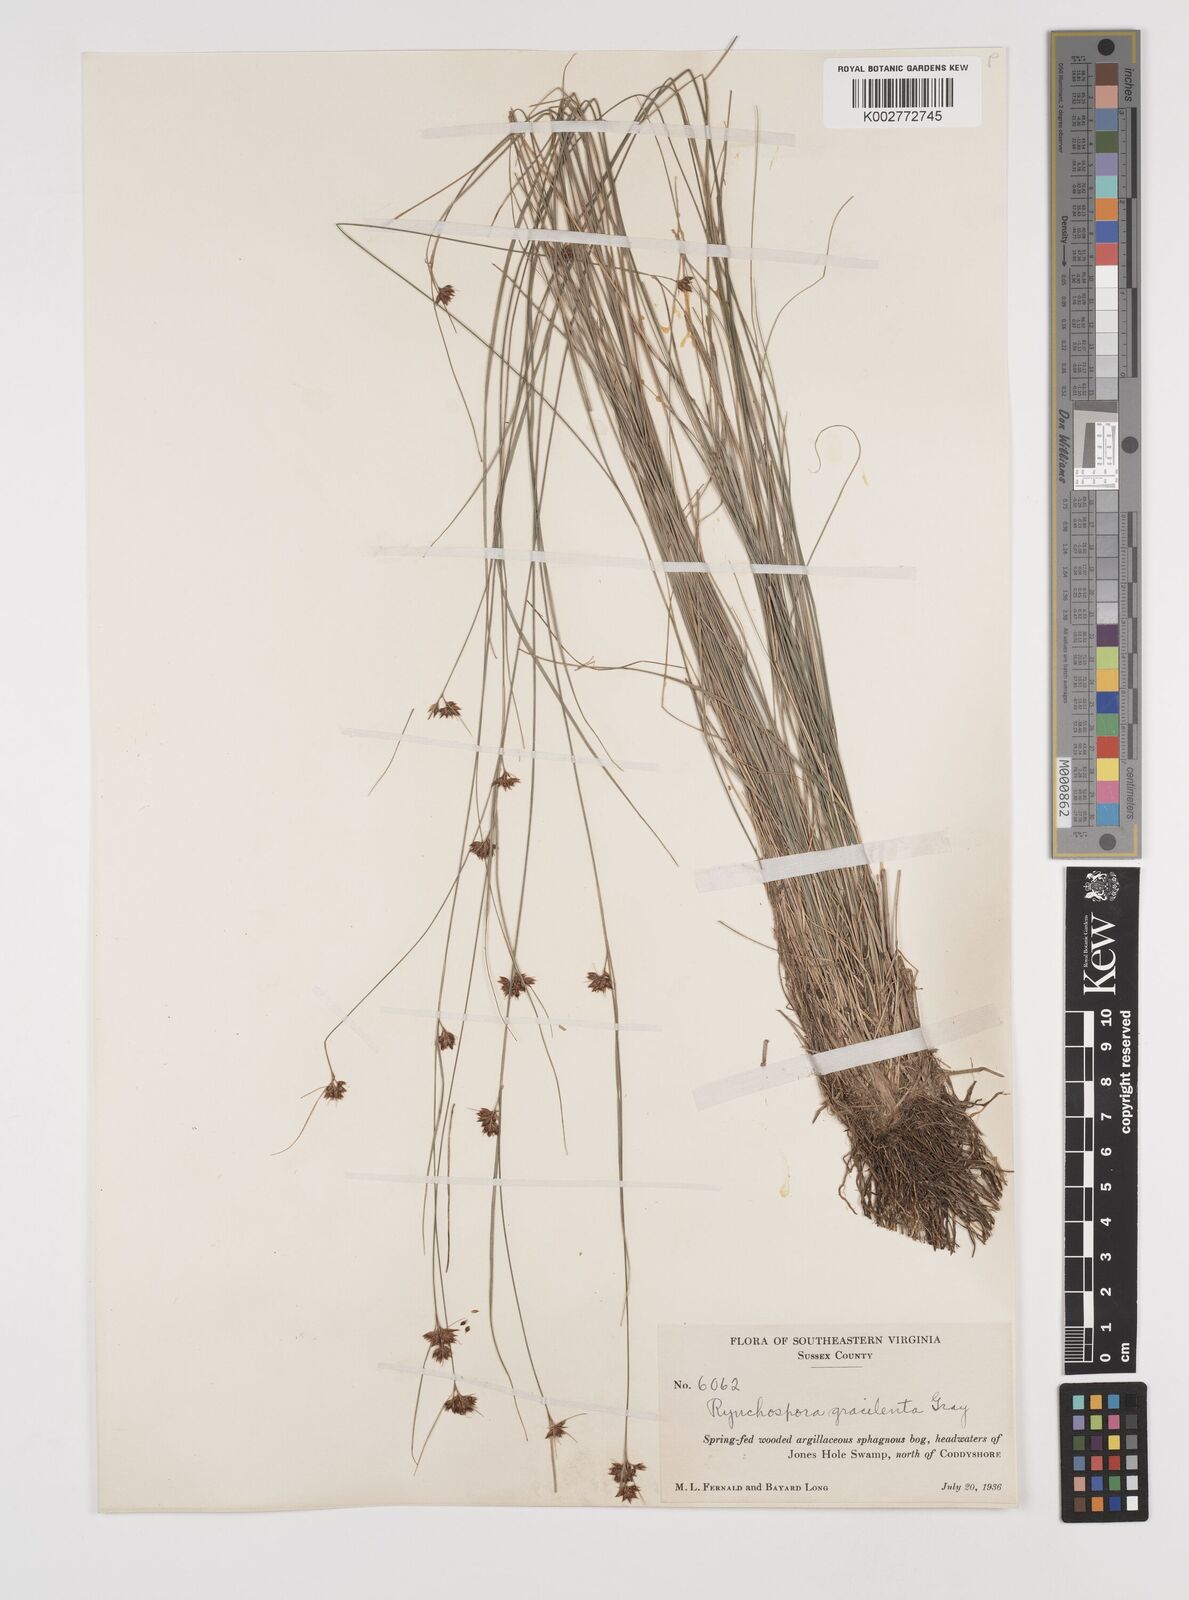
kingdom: Plantae
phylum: Tracheophyta
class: Liliopsida
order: Poales
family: Cyperaceae
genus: Rhynchospora
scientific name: Rhynchospora gracilenta
